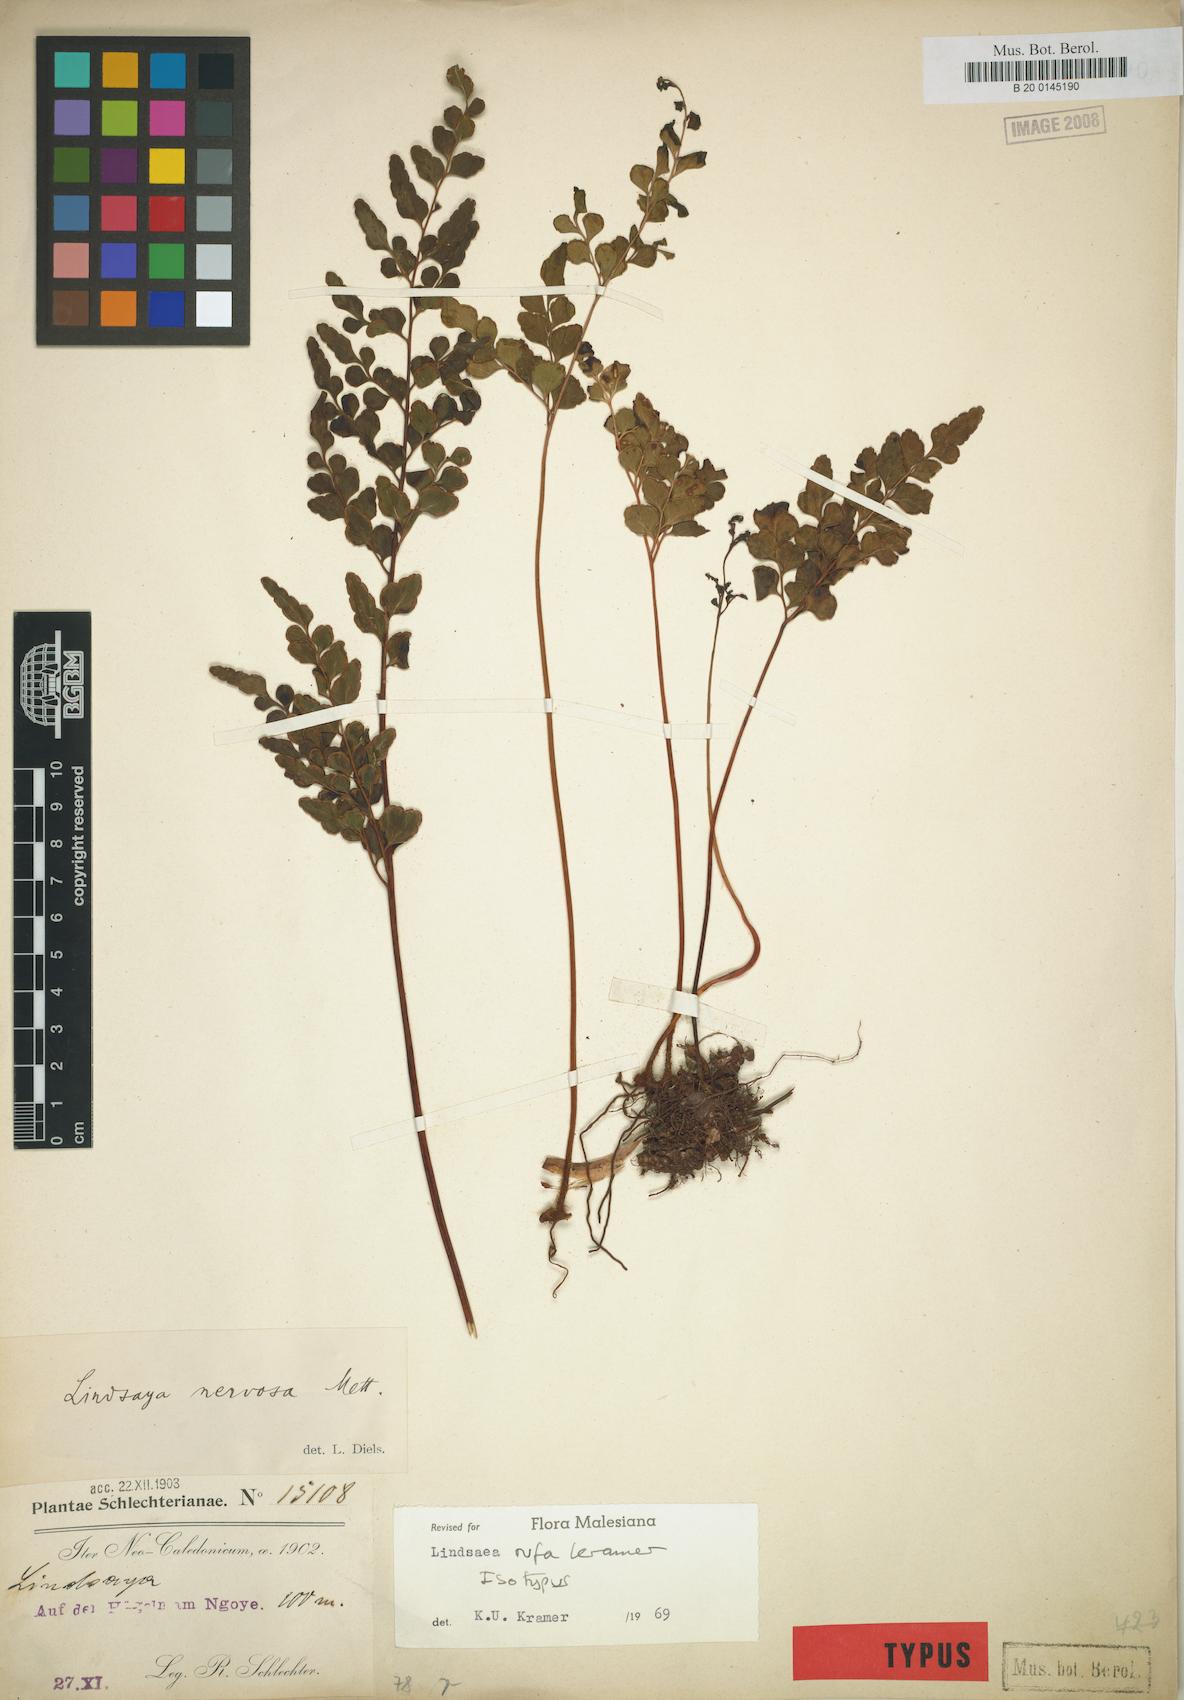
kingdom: Plantae
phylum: Tracheophyta
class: Polypodiopsida
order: Polypodiales
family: Lindsaeaceae
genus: Lindsaea
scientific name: Lindsaea rufa
